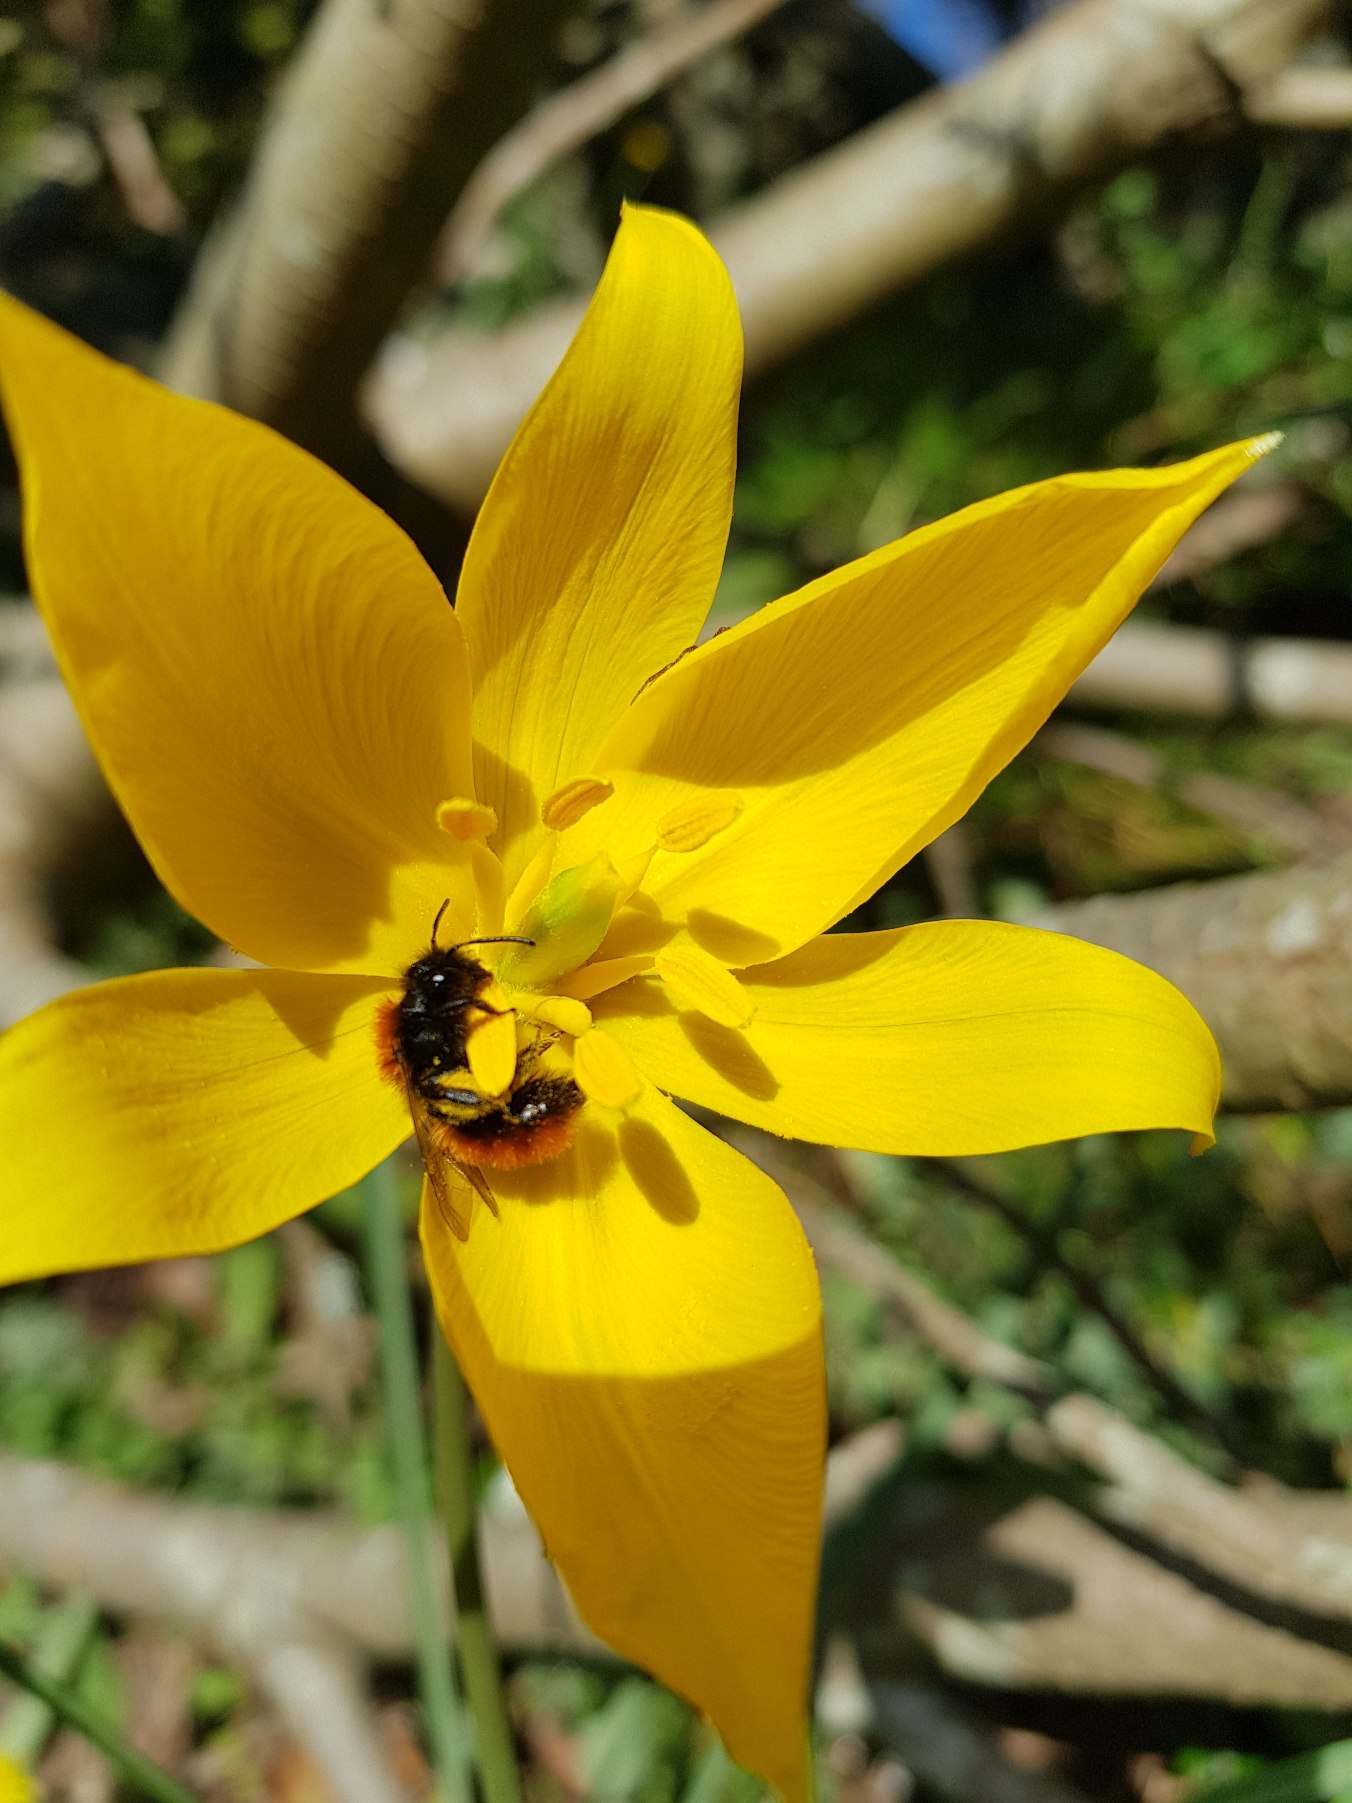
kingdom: Animalia
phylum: Arthropoda
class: Insecta
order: Hymenoptera
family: Andrenidae
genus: Andrena
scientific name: Andrena fulva
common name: Rødpelset jordbi
